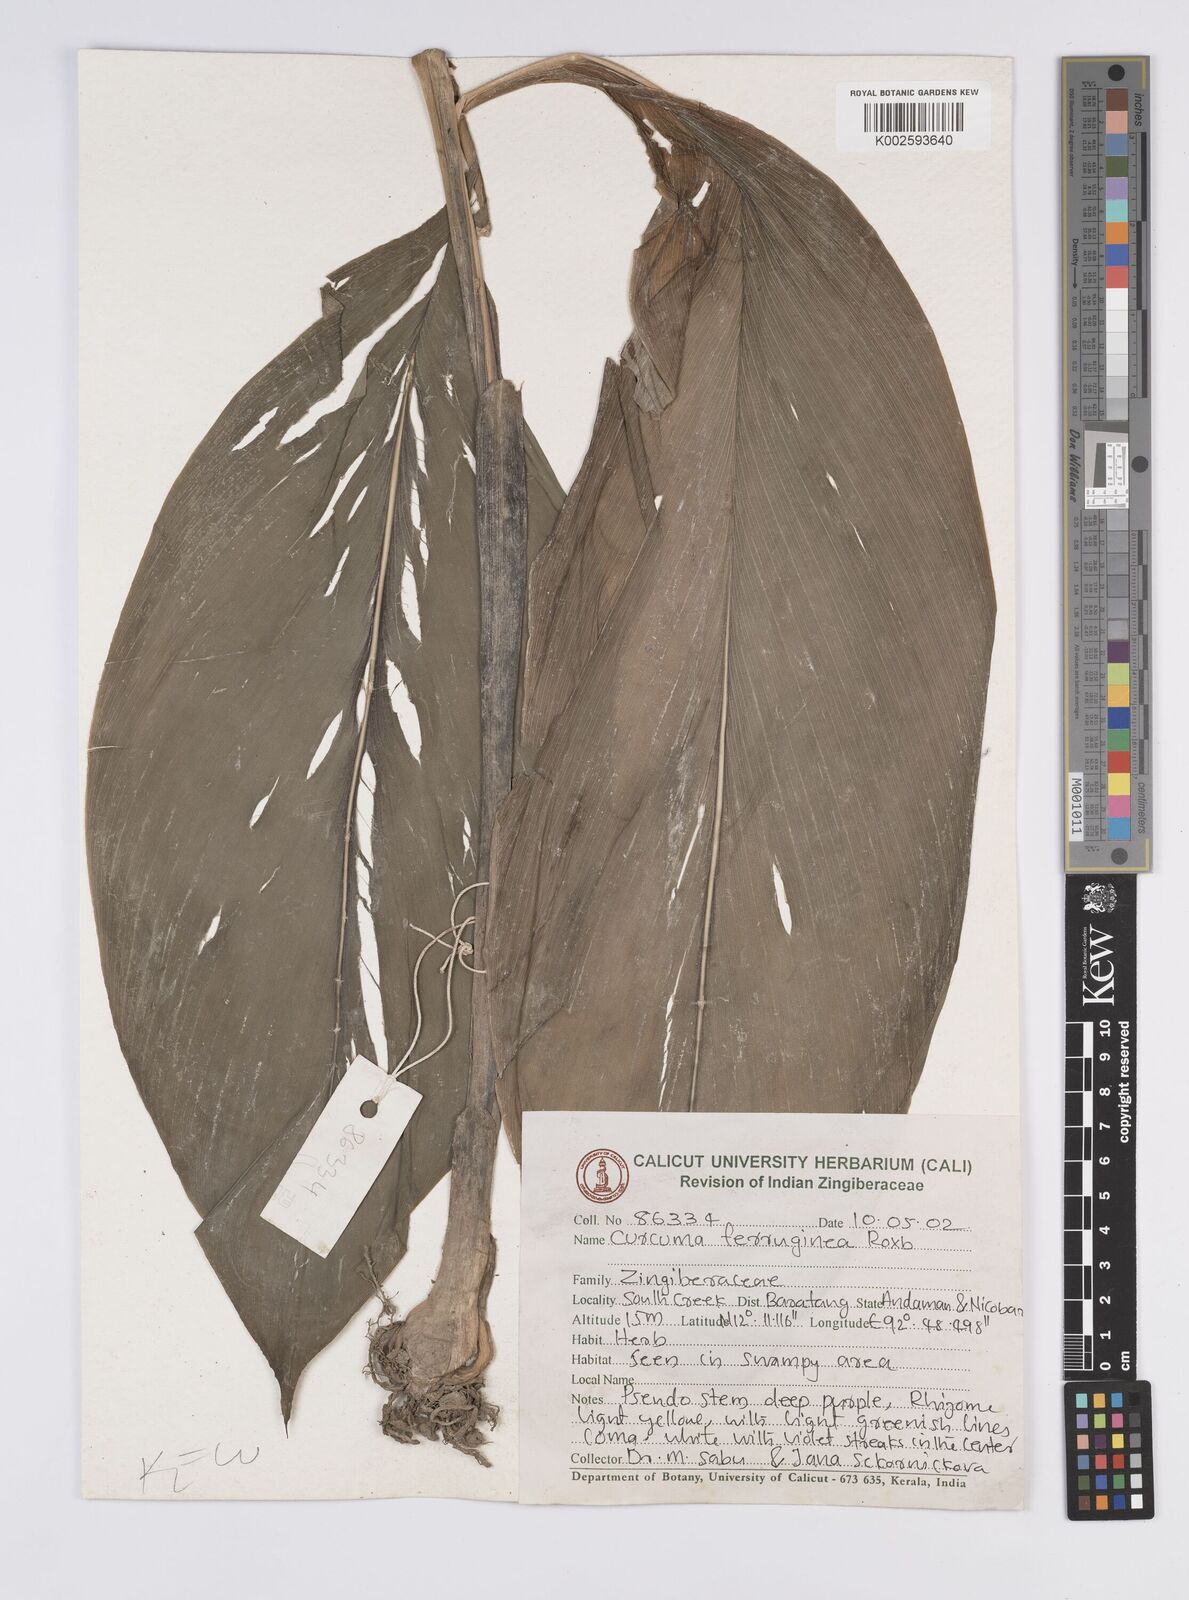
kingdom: Plantae
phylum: Tracheophyta
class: Liliopsida
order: Zingiberales
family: Zingiberaceae
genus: Curcuma
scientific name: Curcuma ferruginea
